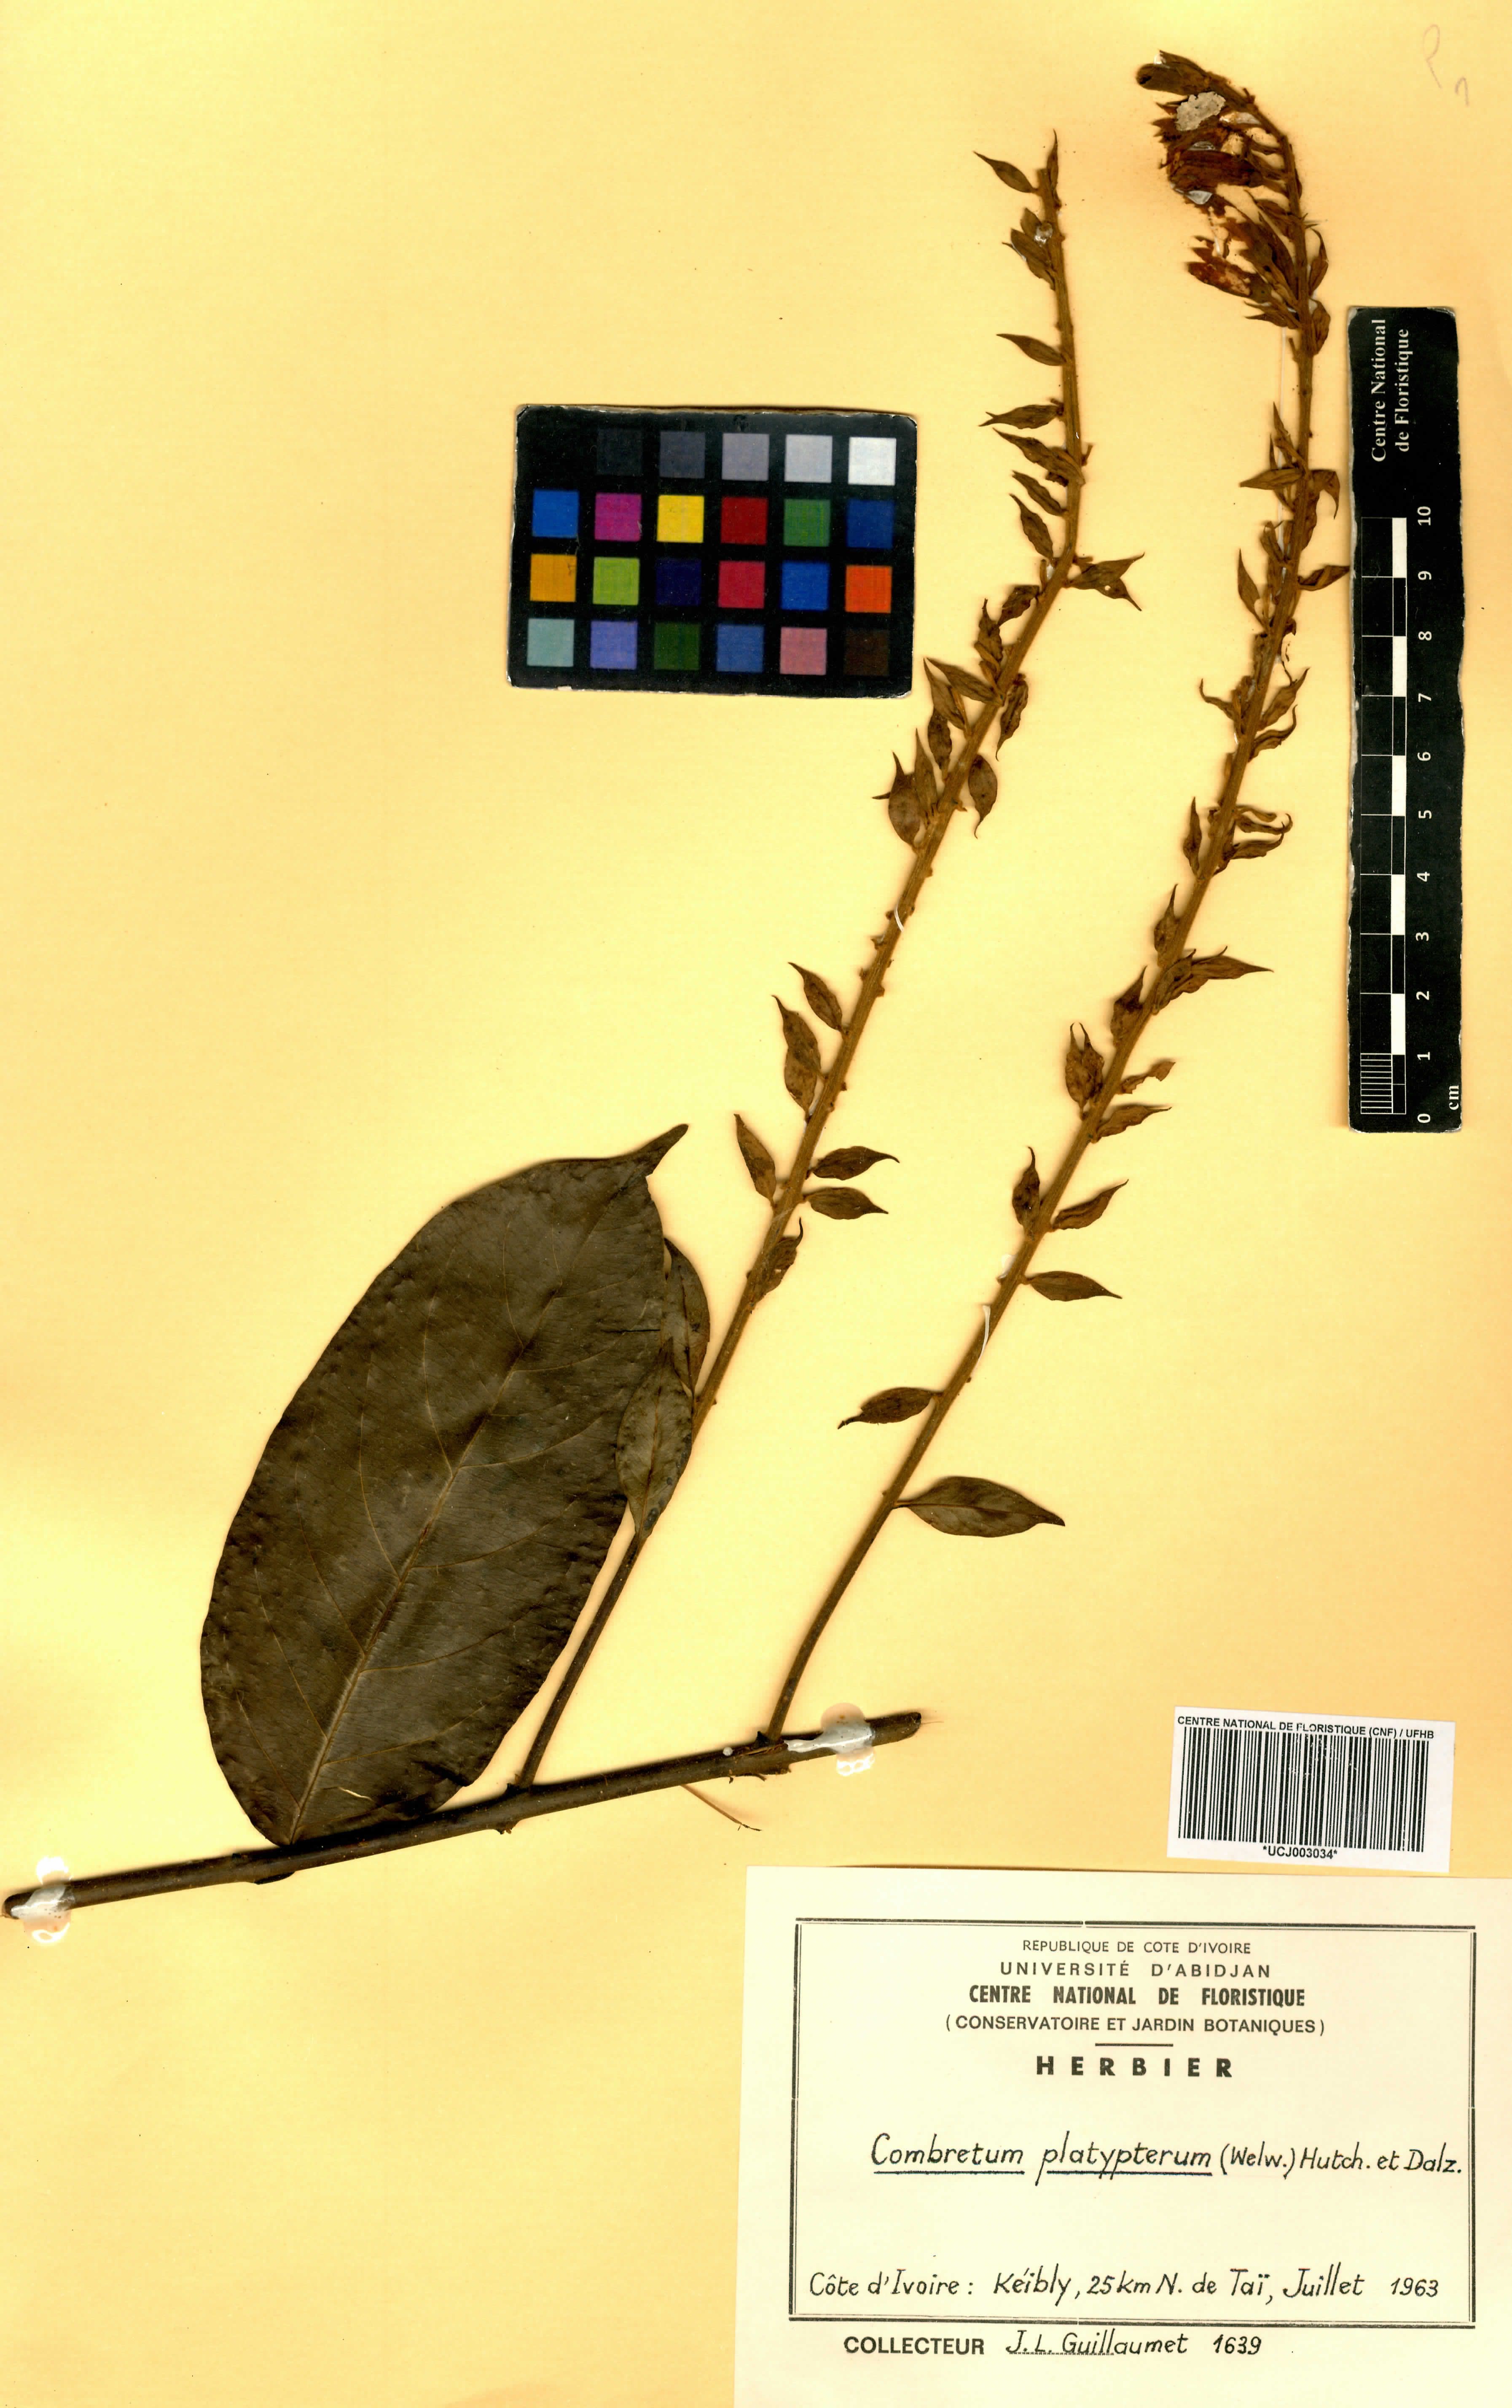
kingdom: Plantae
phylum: Tracheophyta
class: Magnoliopsida
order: Myrtales
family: Combretaceae
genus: Combretum
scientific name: Combretum platypterum
